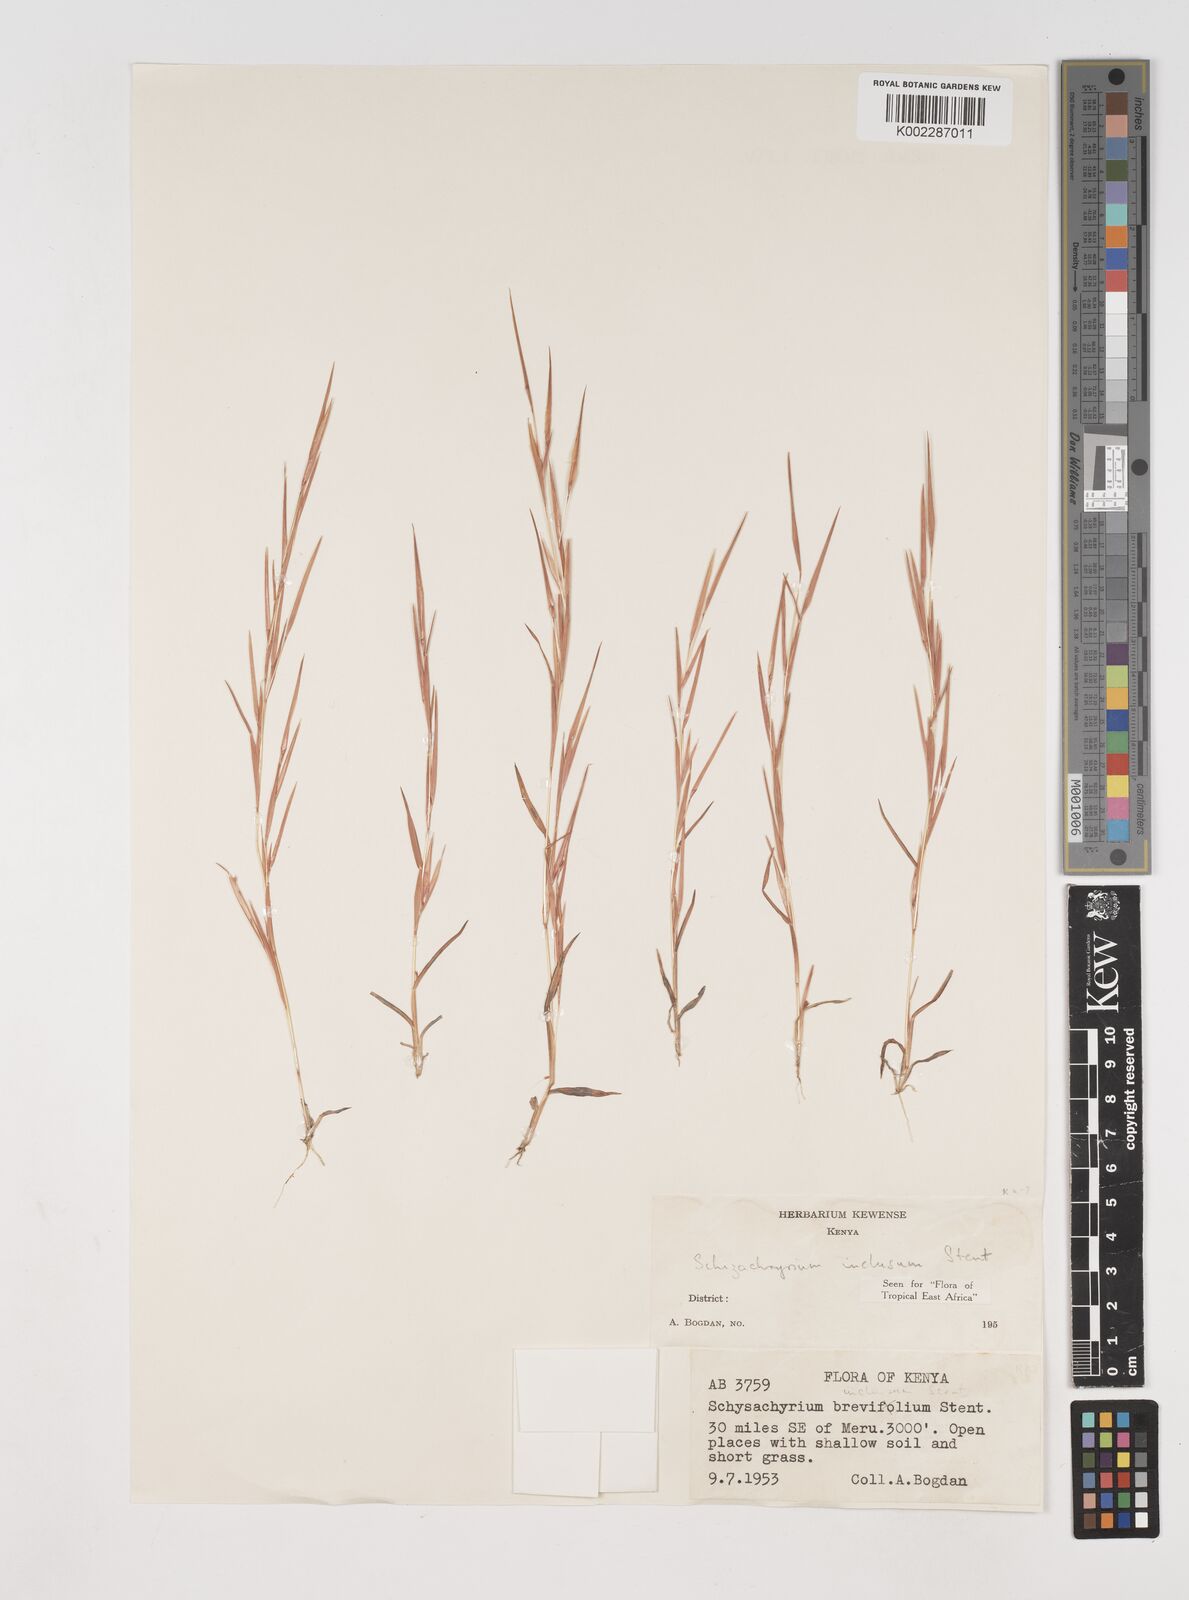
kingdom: Plantae
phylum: Tracheophyta
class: Liliopsida
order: Poales
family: Poaceae
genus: Schizachyrium
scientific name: Schizachyrium exile
